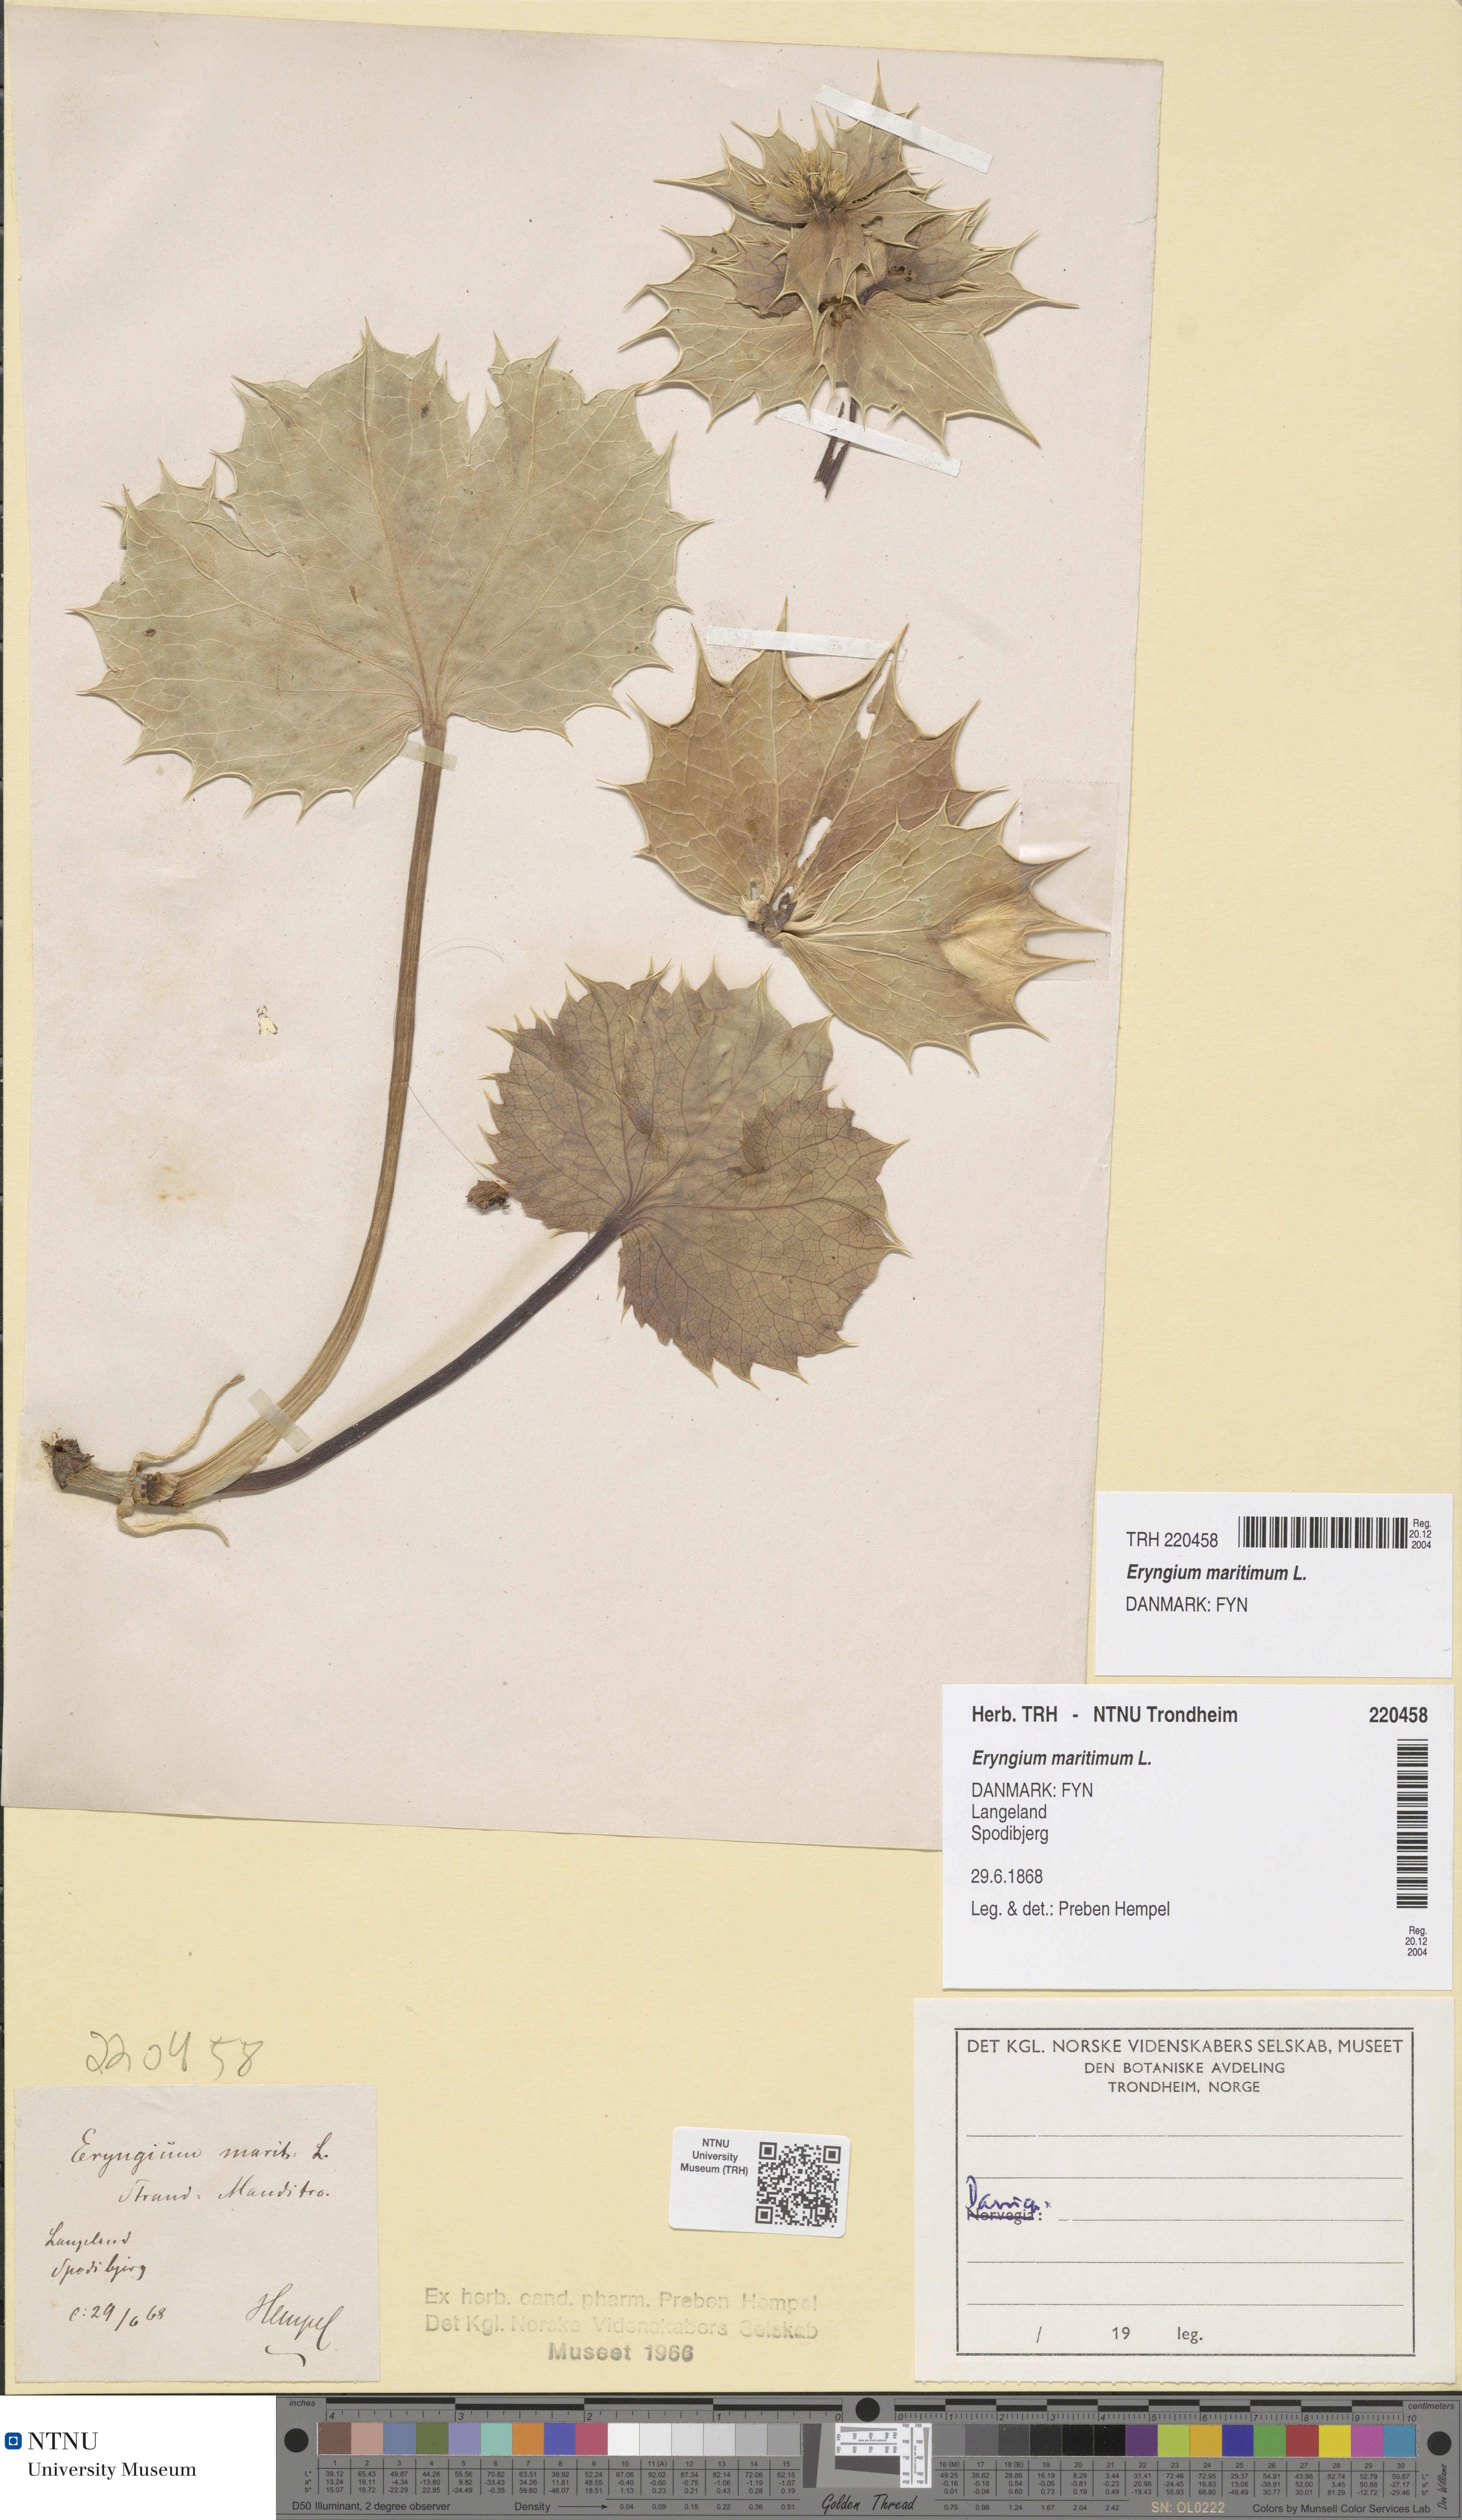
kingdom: Plantae
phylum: Tracheophyta
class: Magnoliopsida
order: Apiales
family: Apiaceae
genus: Eryngium
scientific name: Eryngium maritimum
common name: Sea-holly
